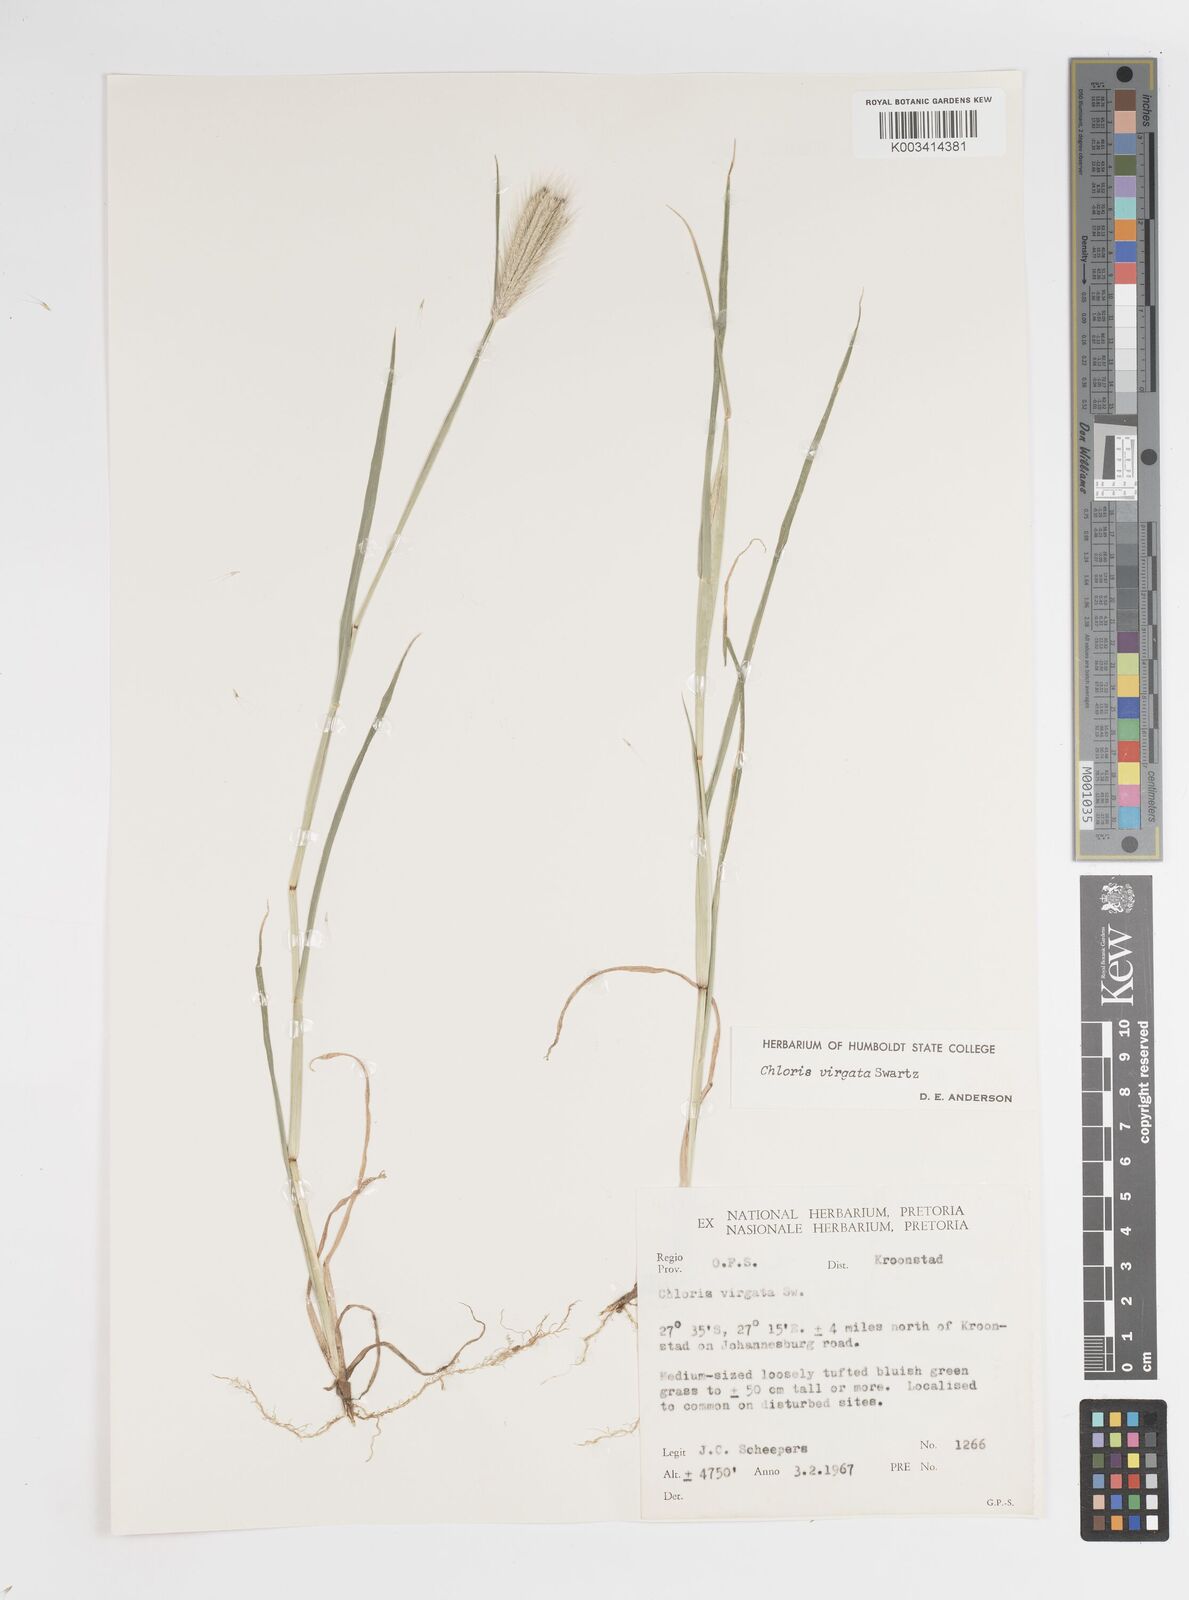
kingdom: Plantae
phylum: Tracheophyta
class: Liliopsida
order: Poales
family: Poaceae
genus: Chloris
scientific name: Chloris virgata
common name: Feathery rhodes-grass
